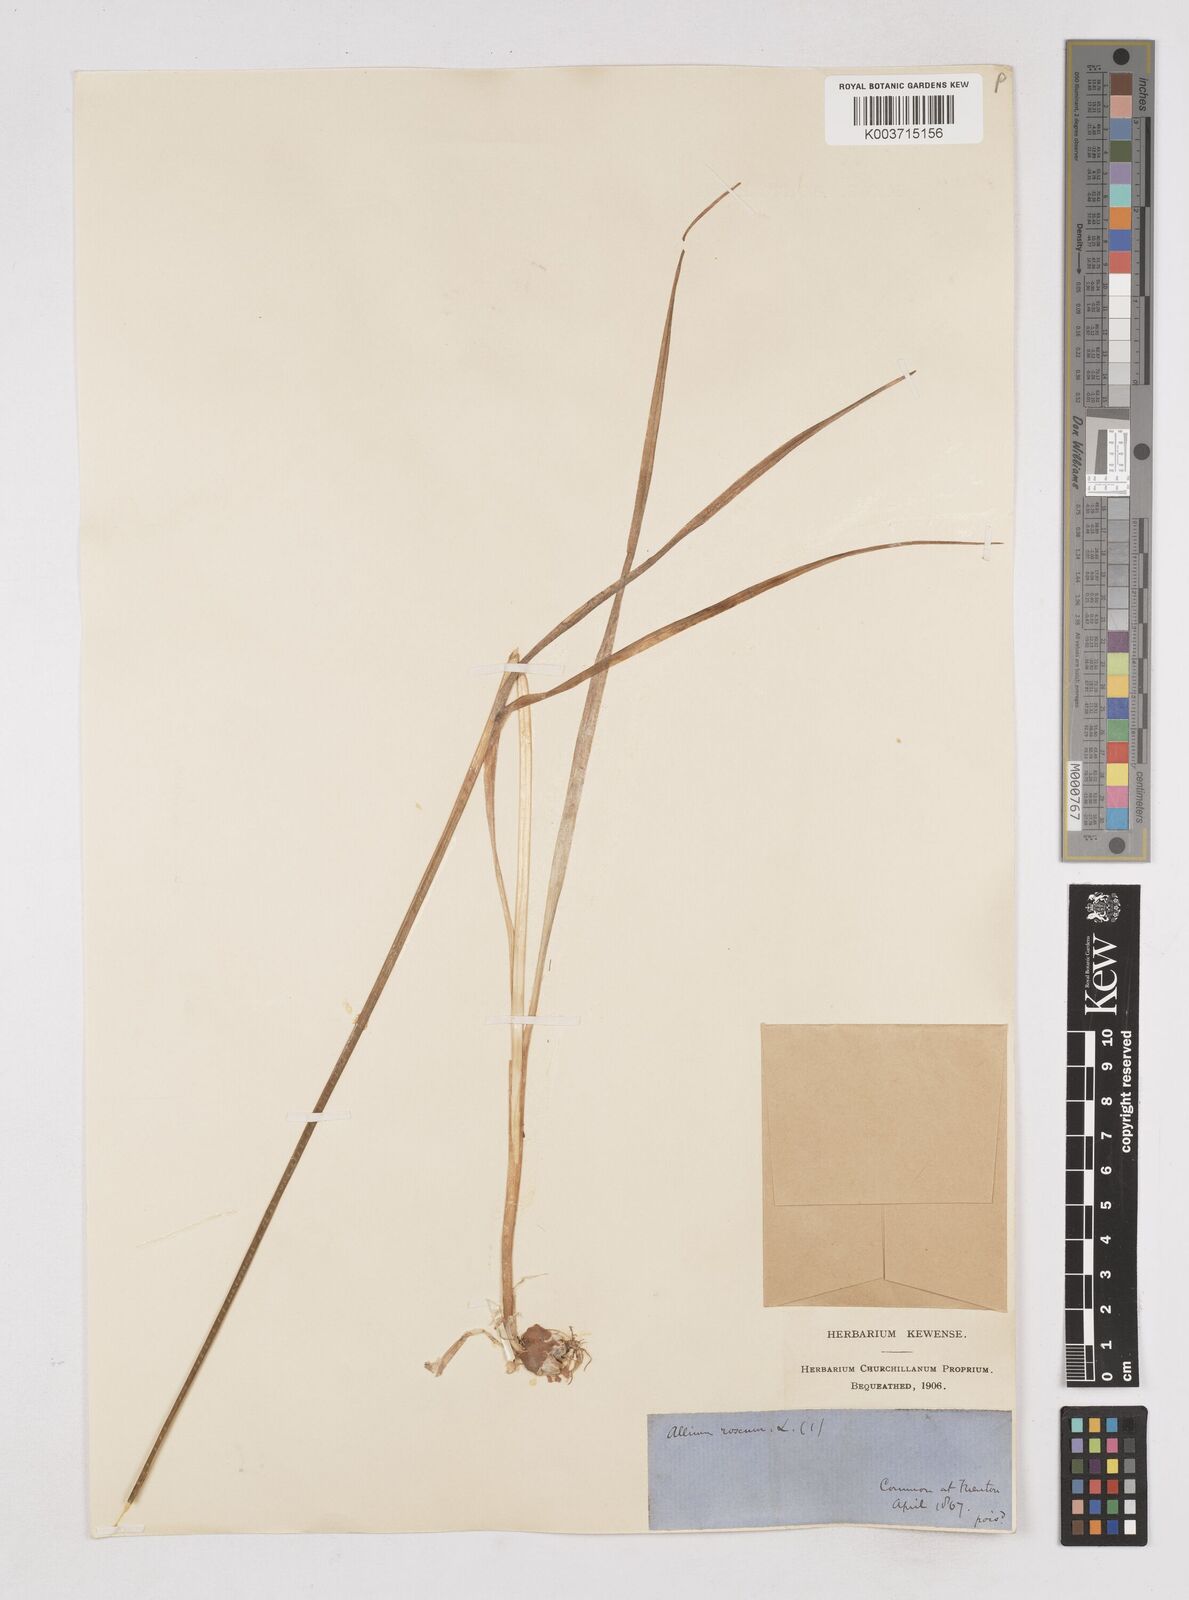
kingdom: Plantae
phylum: Tracheophyta
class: Liliopsida
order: Asparagales
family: Amaryllidaceae
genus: Allium
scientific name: Allium roseum
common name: Rosy garlic
